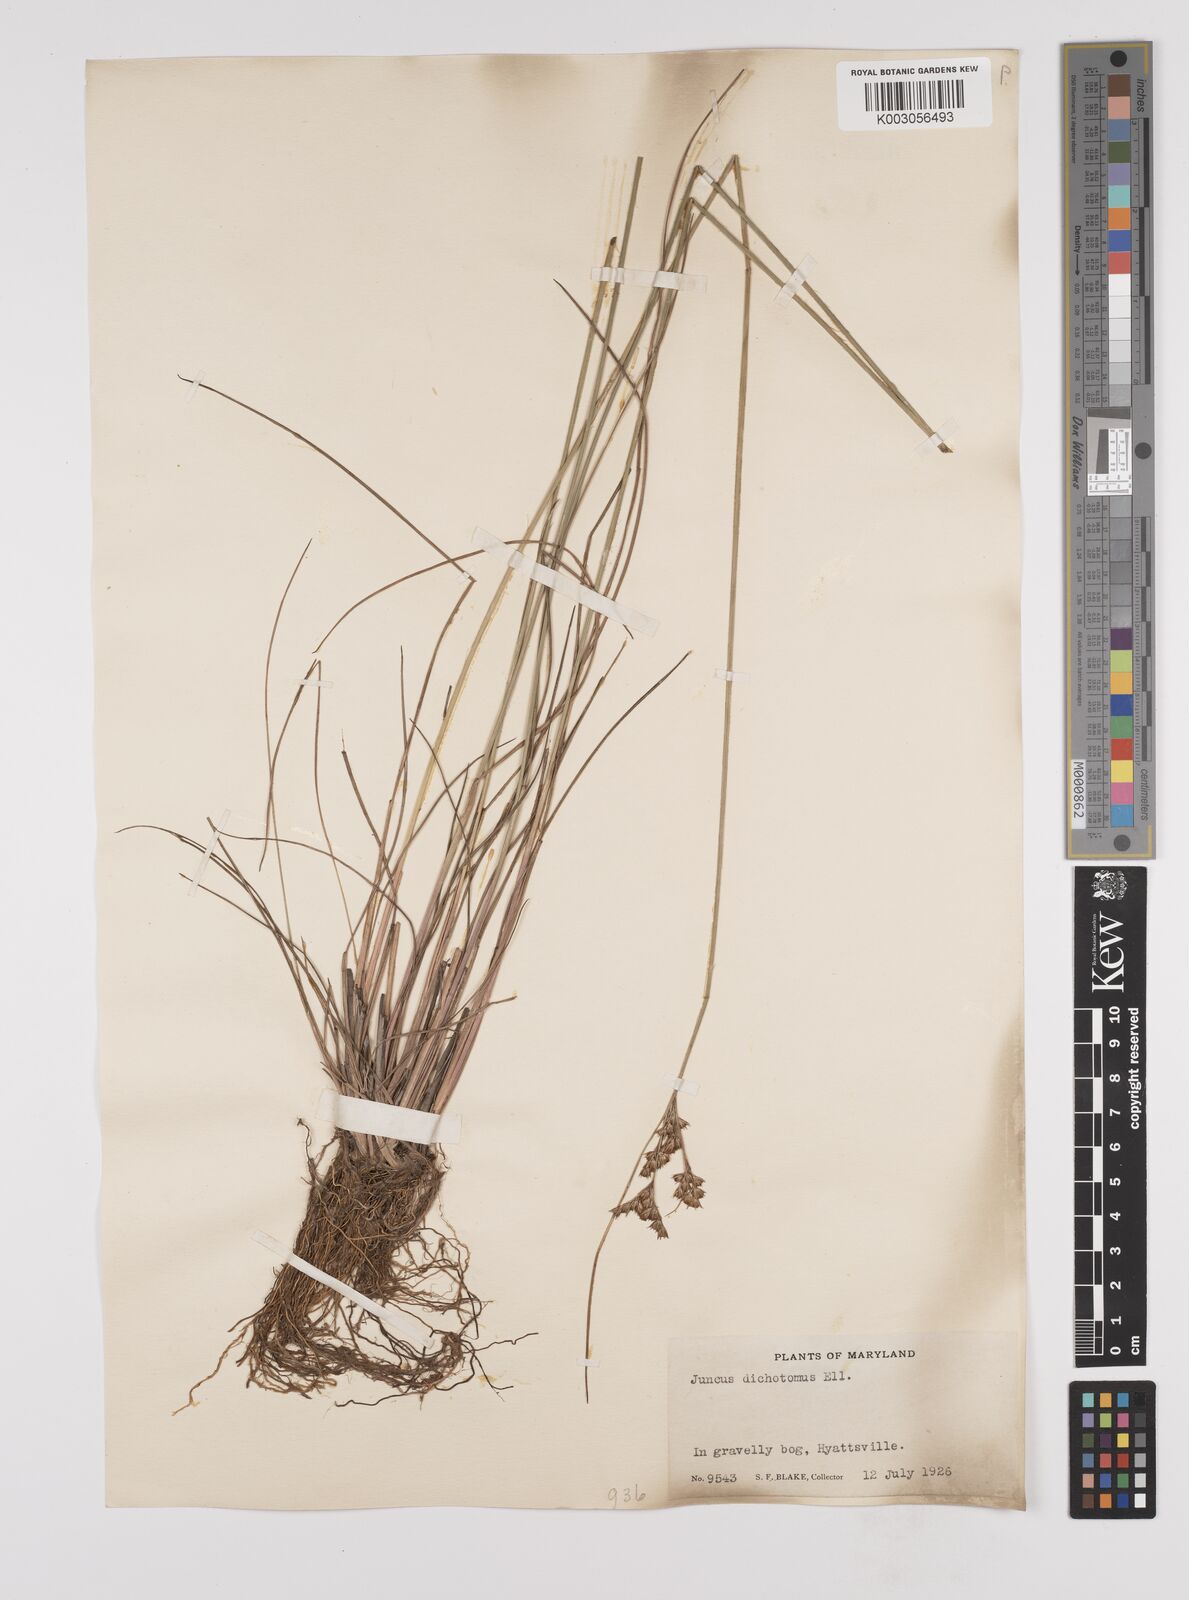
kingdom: Plantae
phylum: Tracheophyta
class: Liliopsida
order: Poales
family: Juncaceae
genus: Juncus
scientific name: Juncus dichotomus
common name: Forked rush
